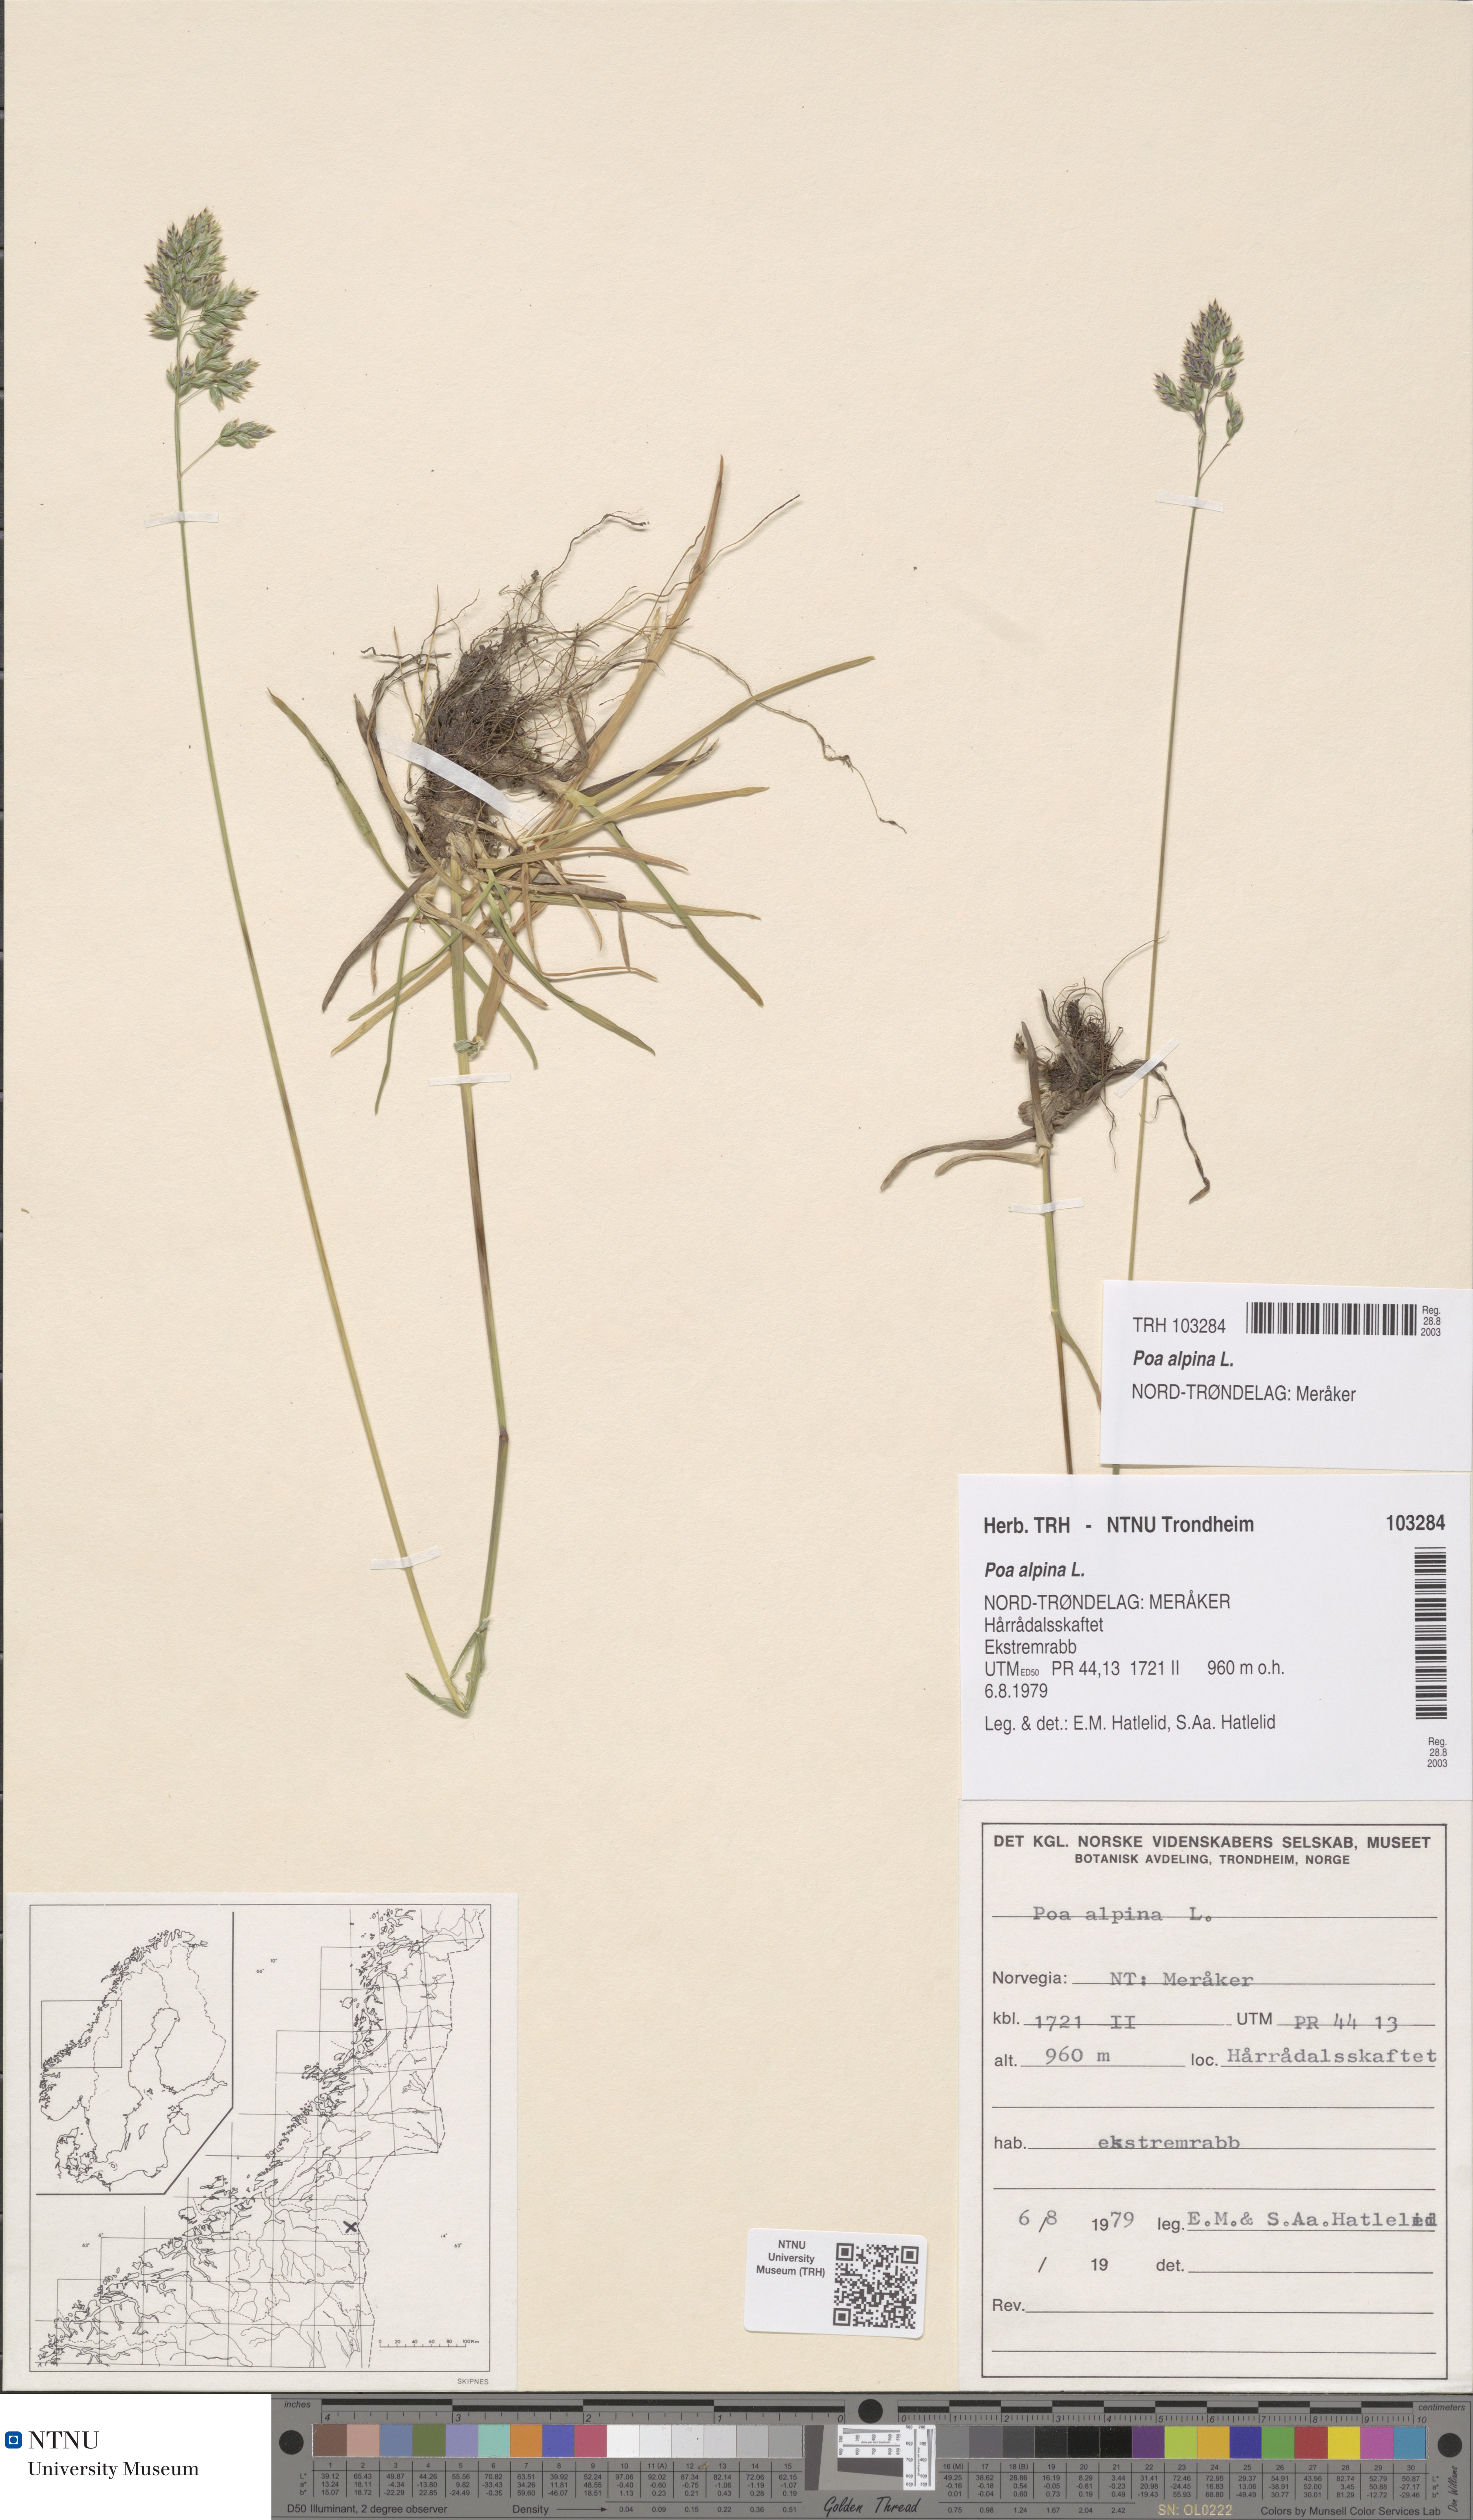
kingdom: Plantae
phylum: Tracheophyta
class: Liliopsida
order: Poales
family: Poaceae
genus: Poa
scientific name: Poa alpina
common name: Alpine bluegrass
